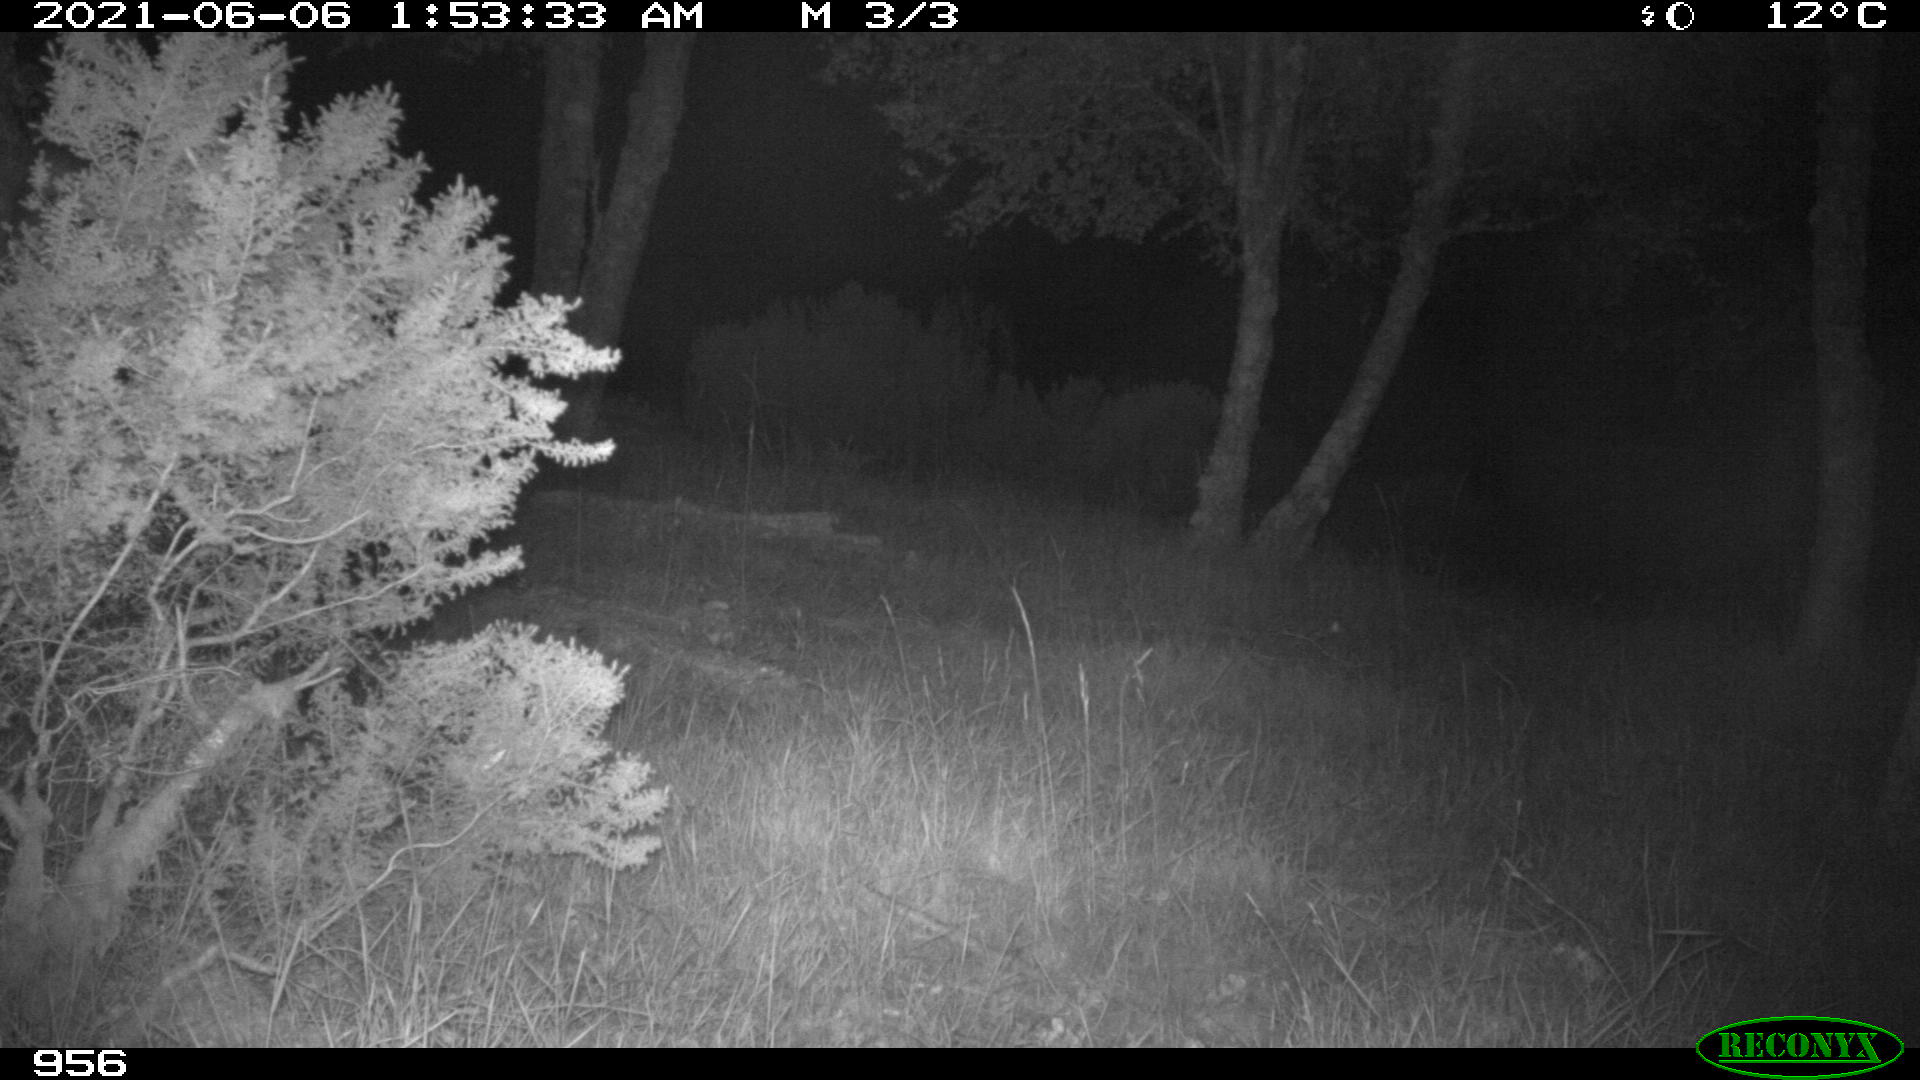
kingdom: Animalia
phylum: Chordata
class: Mammalia
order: Artiodactyla
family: Cervidae
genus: Capreolus
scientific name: Capreolus capreolus
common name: Western roe deer
